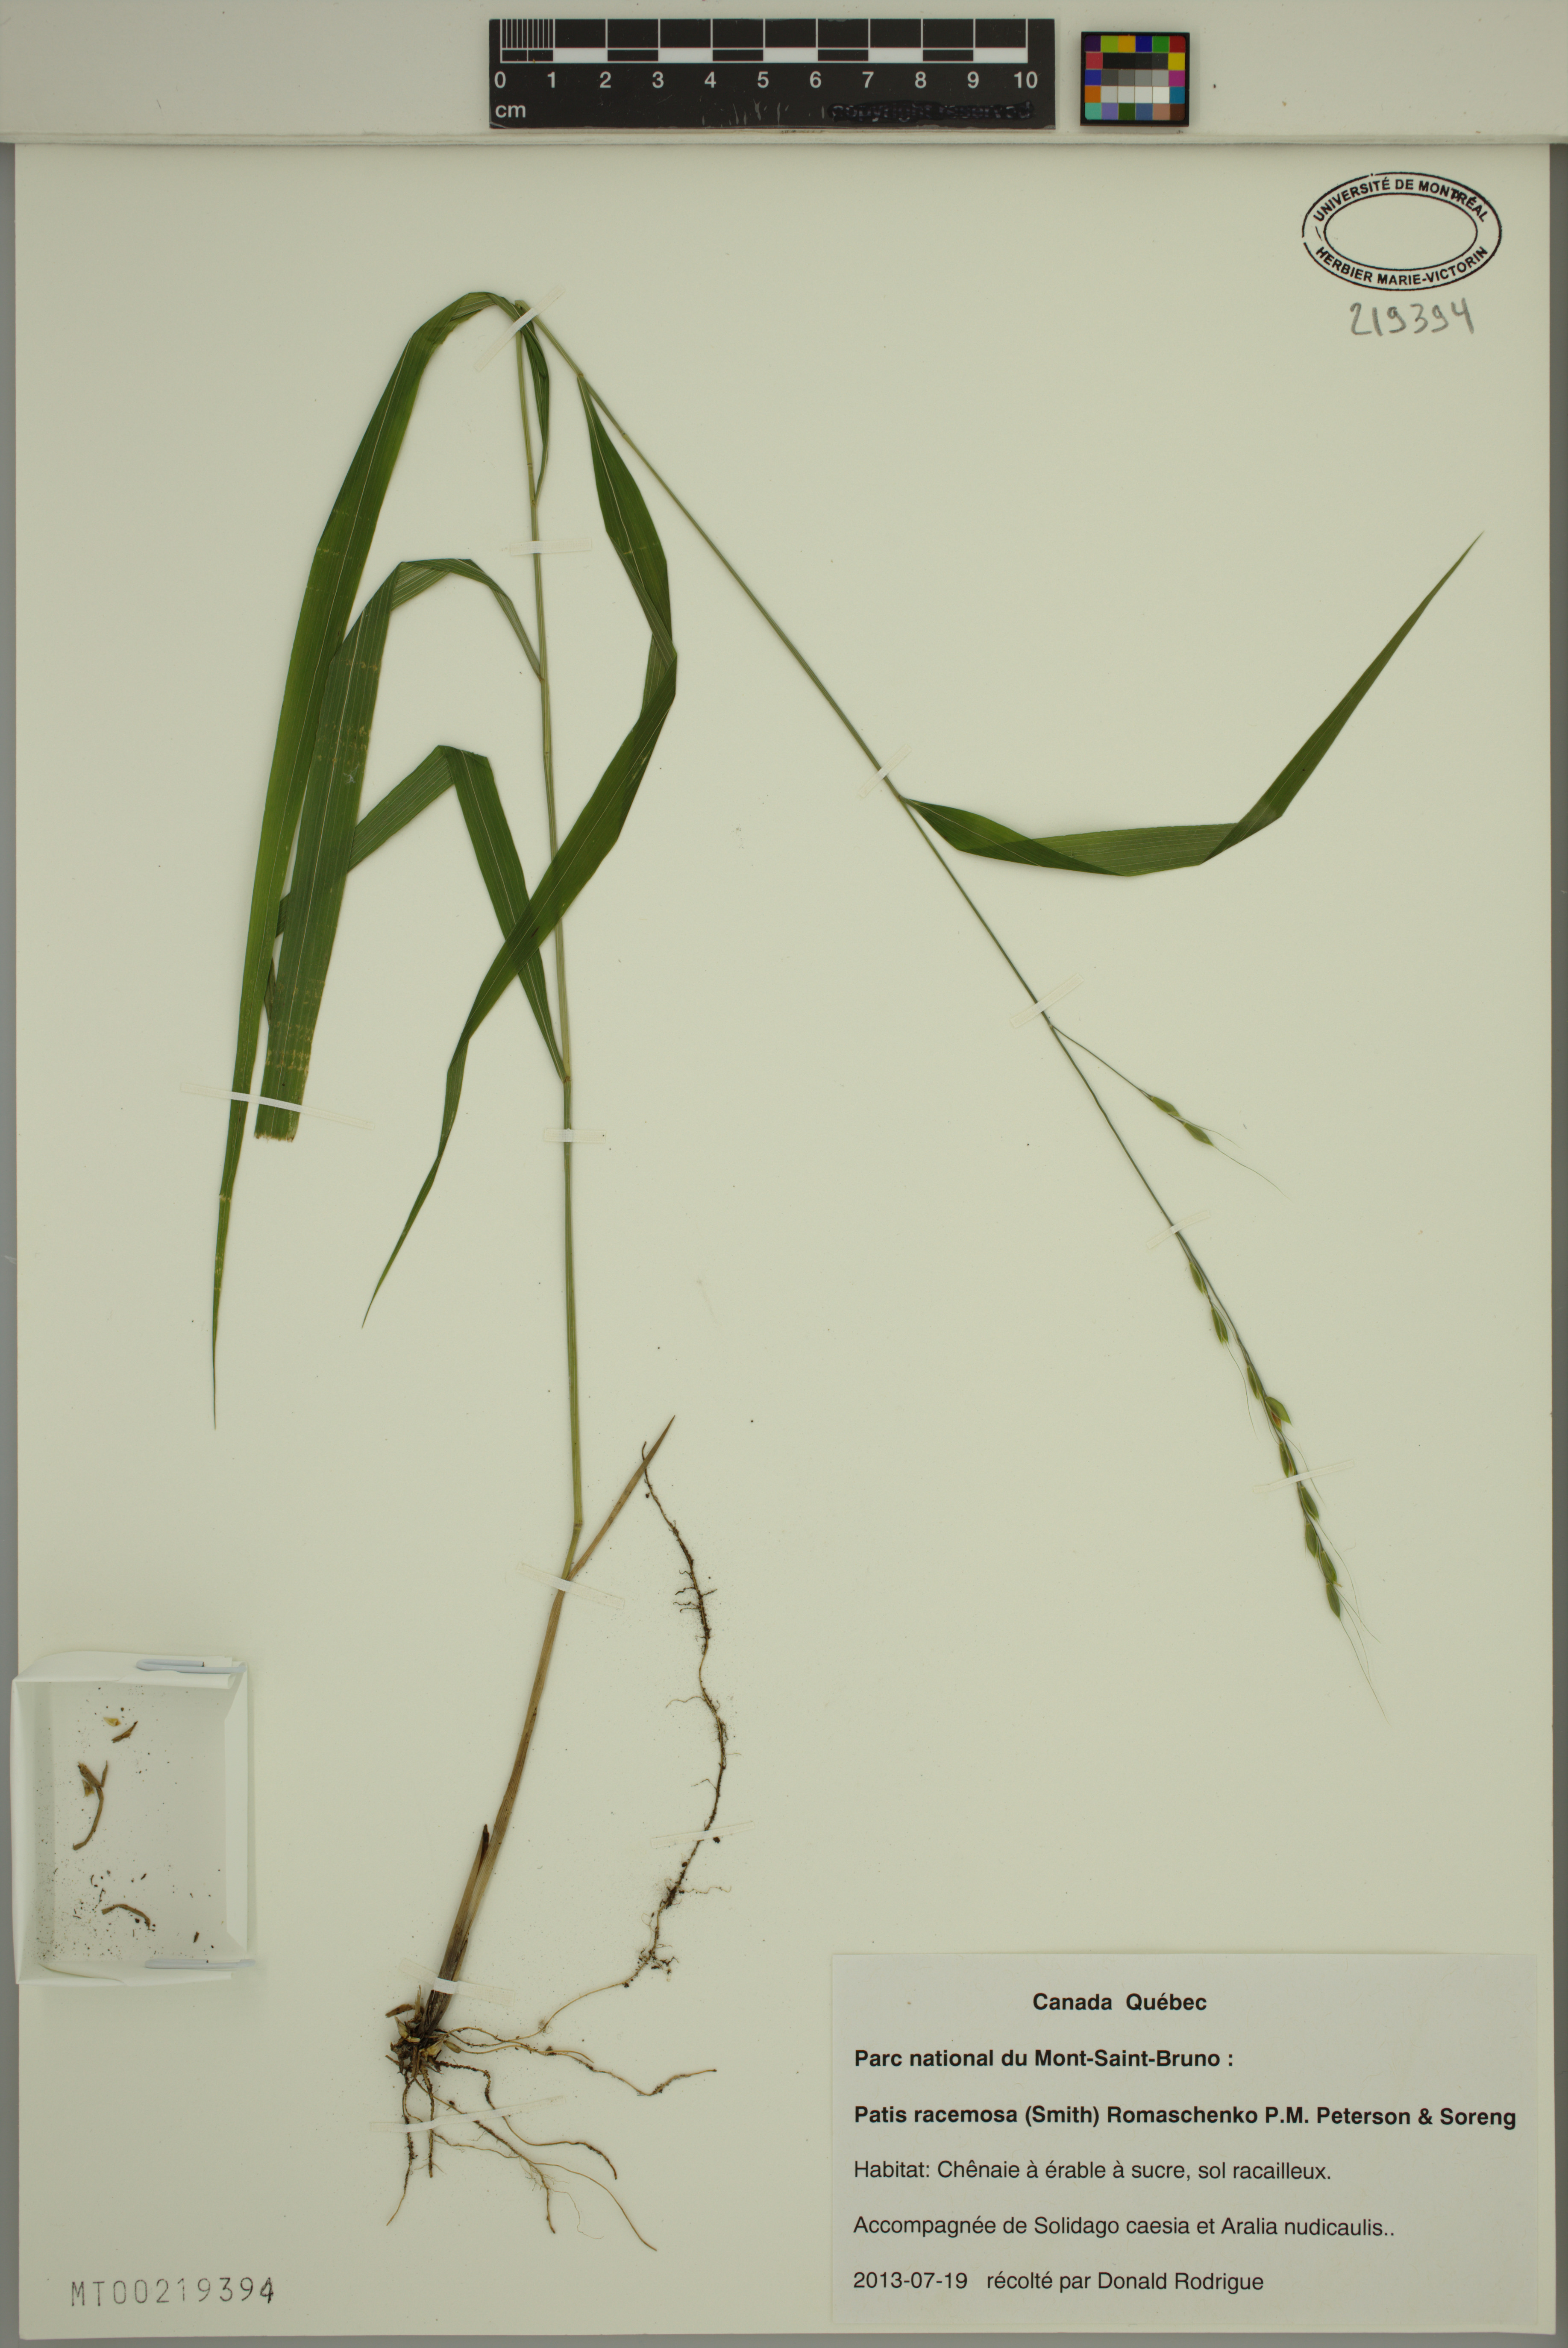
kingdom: Plantae
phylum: Tracheophyta
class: Liliopsida
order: Poales
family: Poaceae
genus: Patis
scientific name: Patis racemosa
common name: Black-fruited mountain rice
